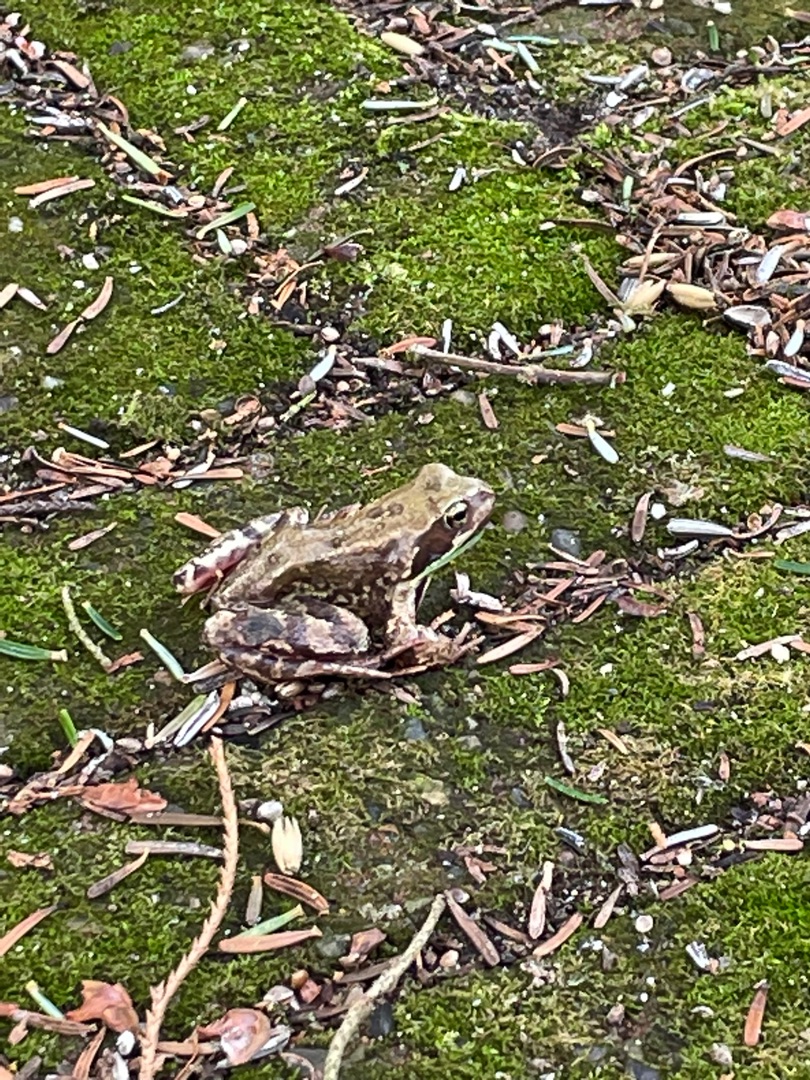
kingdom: Animalia
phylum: Chordata
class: Amphibia
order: Anura
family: Ranidae
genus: Rana
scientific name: Rana temporaria
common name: Butsnudet frø
